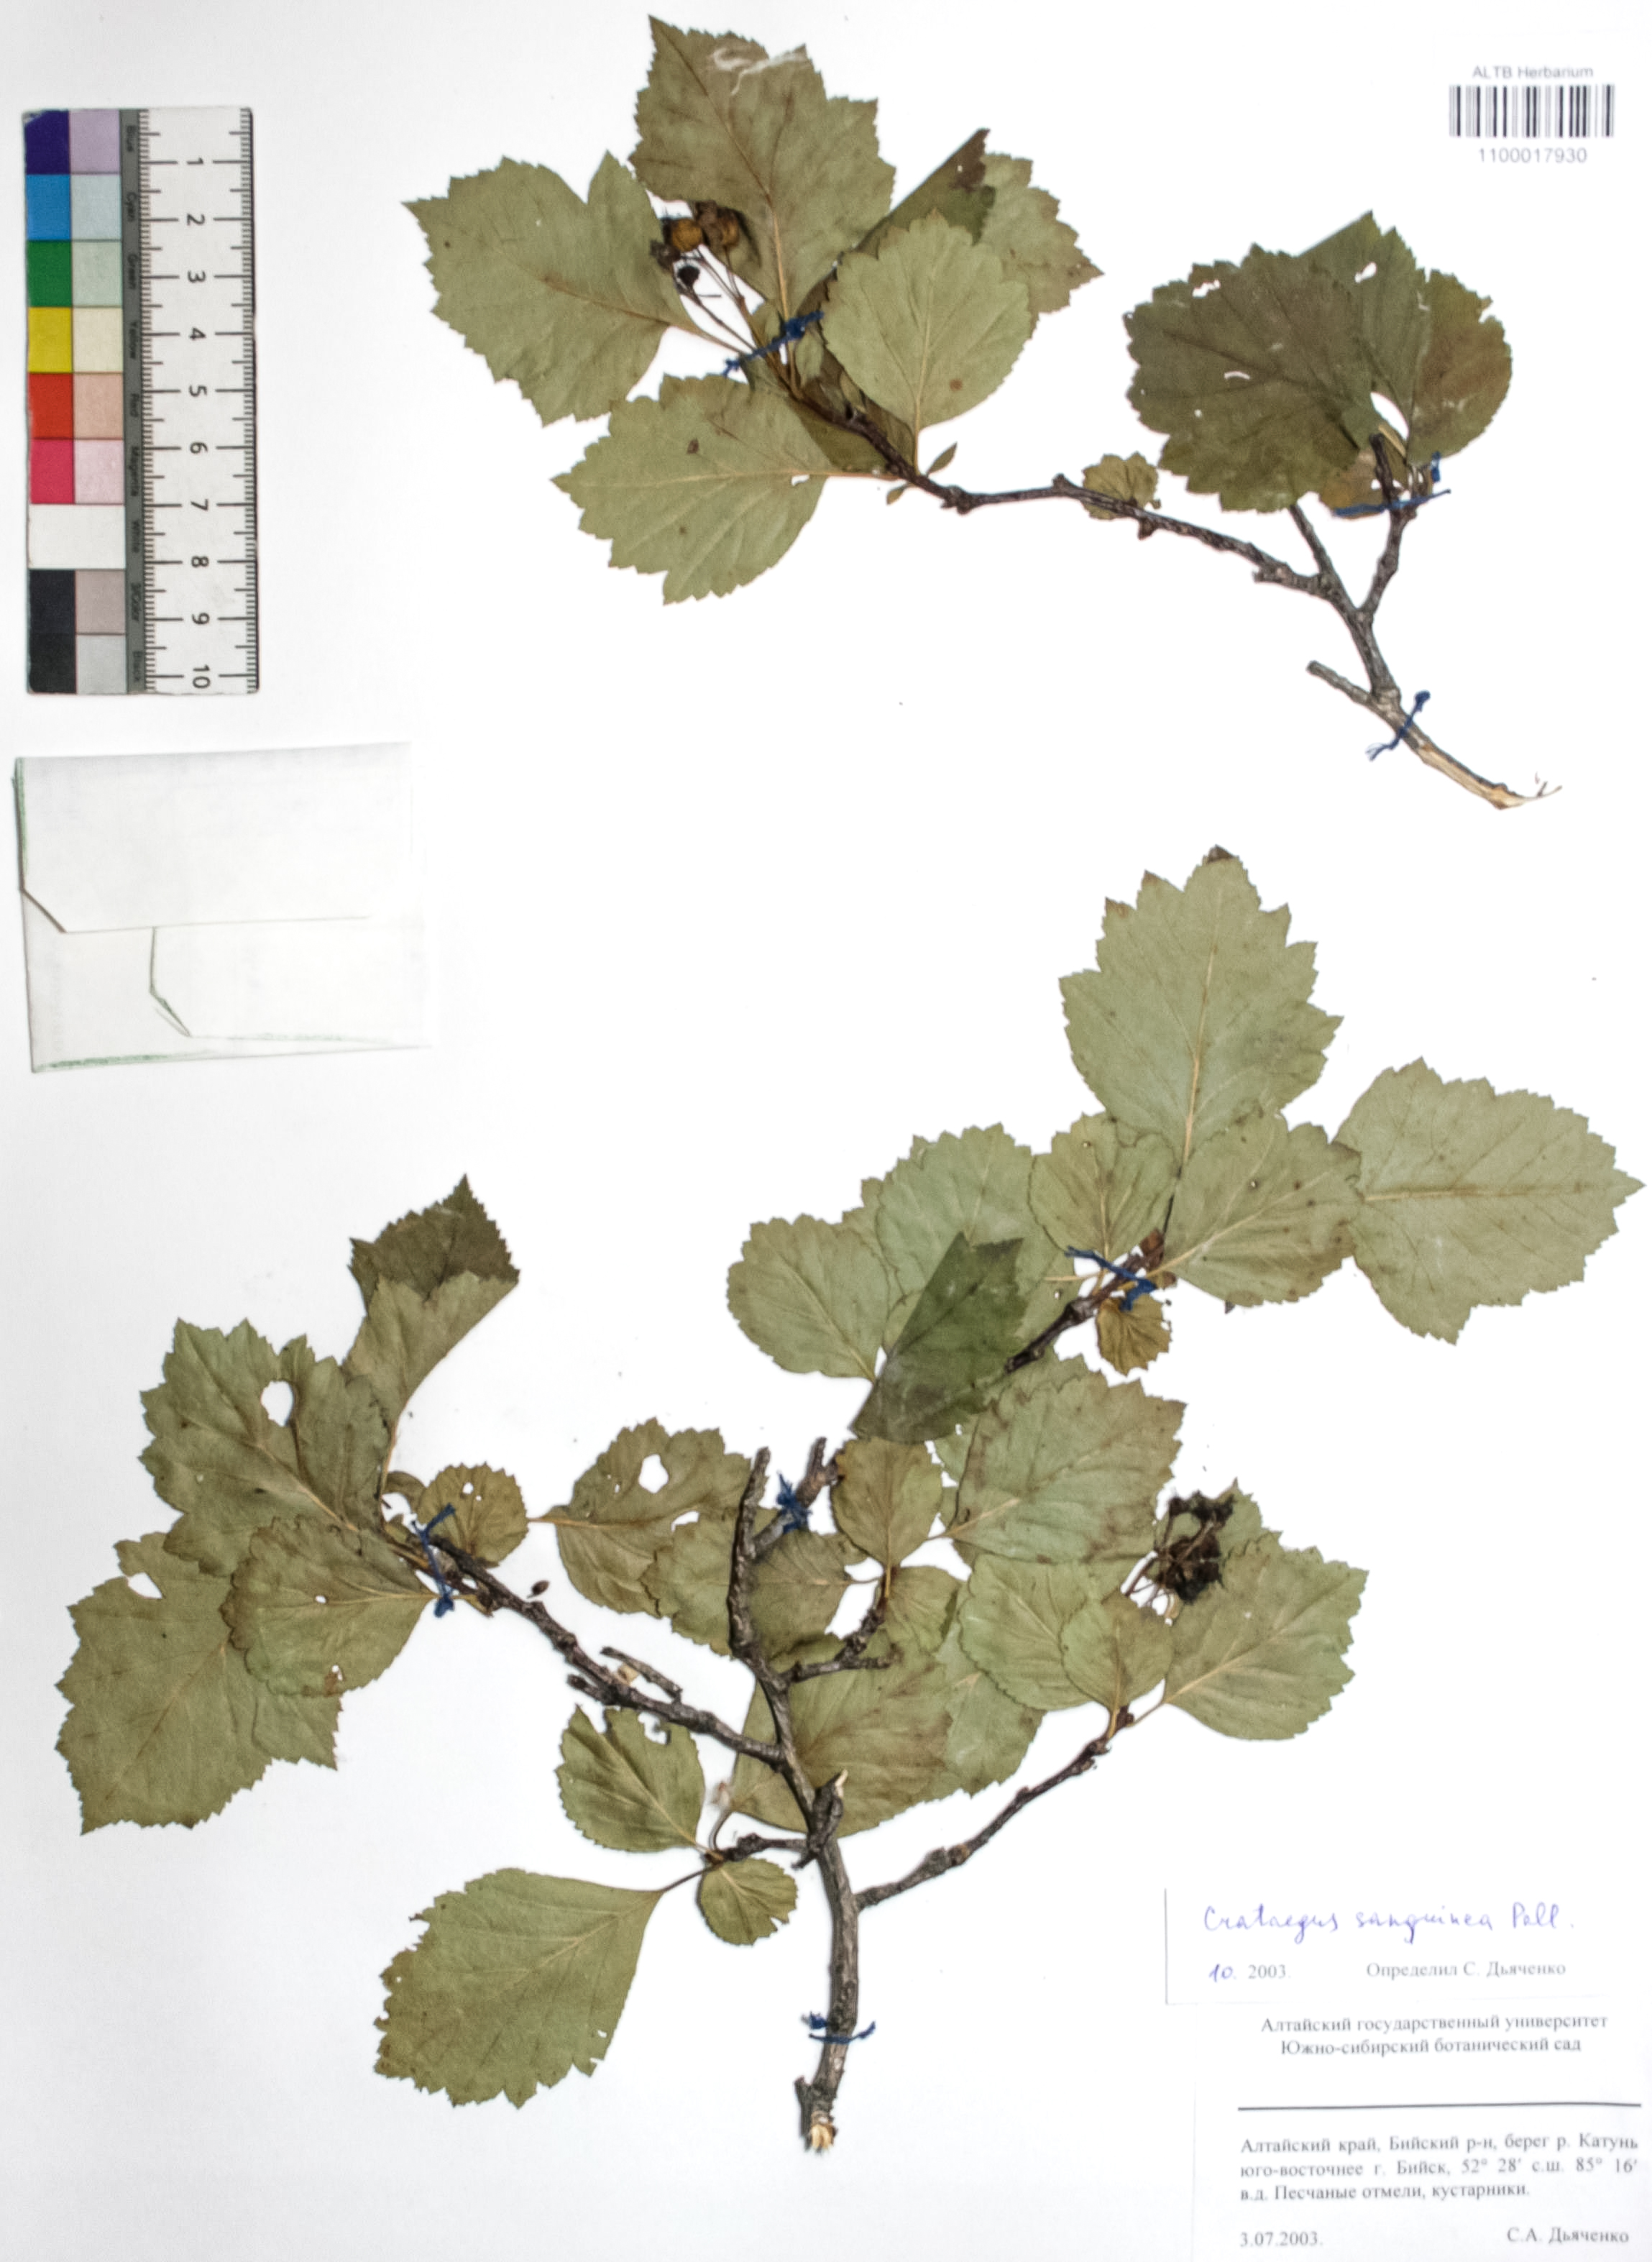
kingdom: Plantae
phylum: Tracheophyta
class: Magnoliopsida
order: Rosales
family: Rosaceae
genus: Crataegus
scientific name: Crataegus sanguinea
